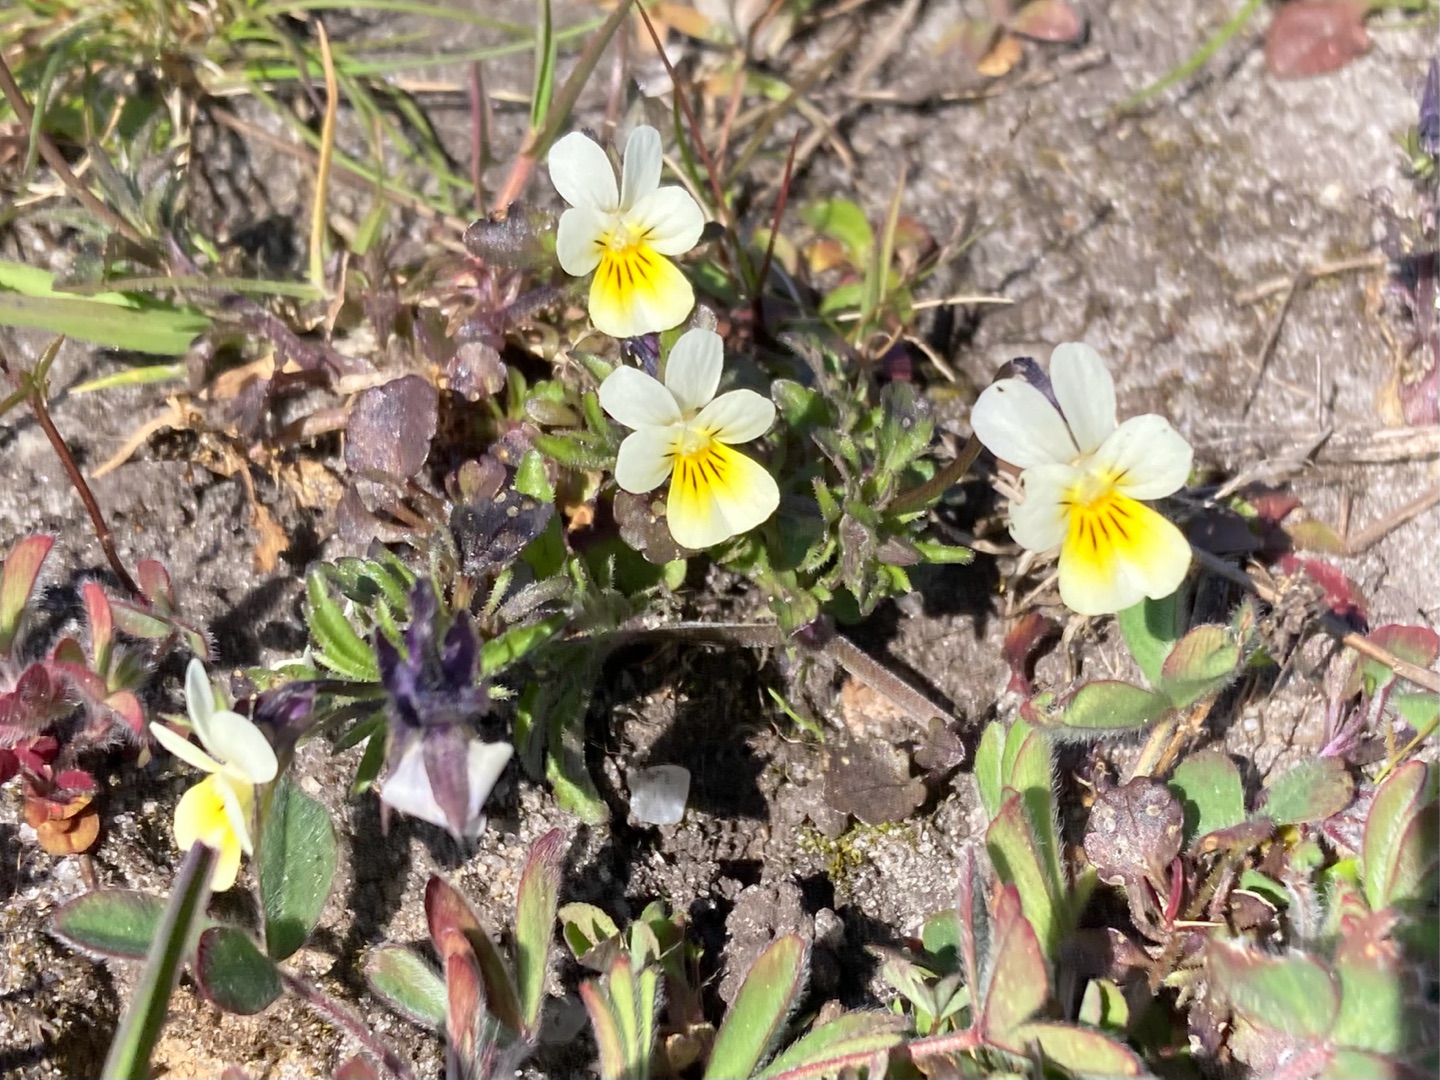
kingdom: Plantae
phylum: Tracheophyta
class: Magnoliopsida
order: Malpighiales
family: Violaceae
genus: Viola
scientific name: Viola arvensis
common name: Ager-stedmoderblomst
